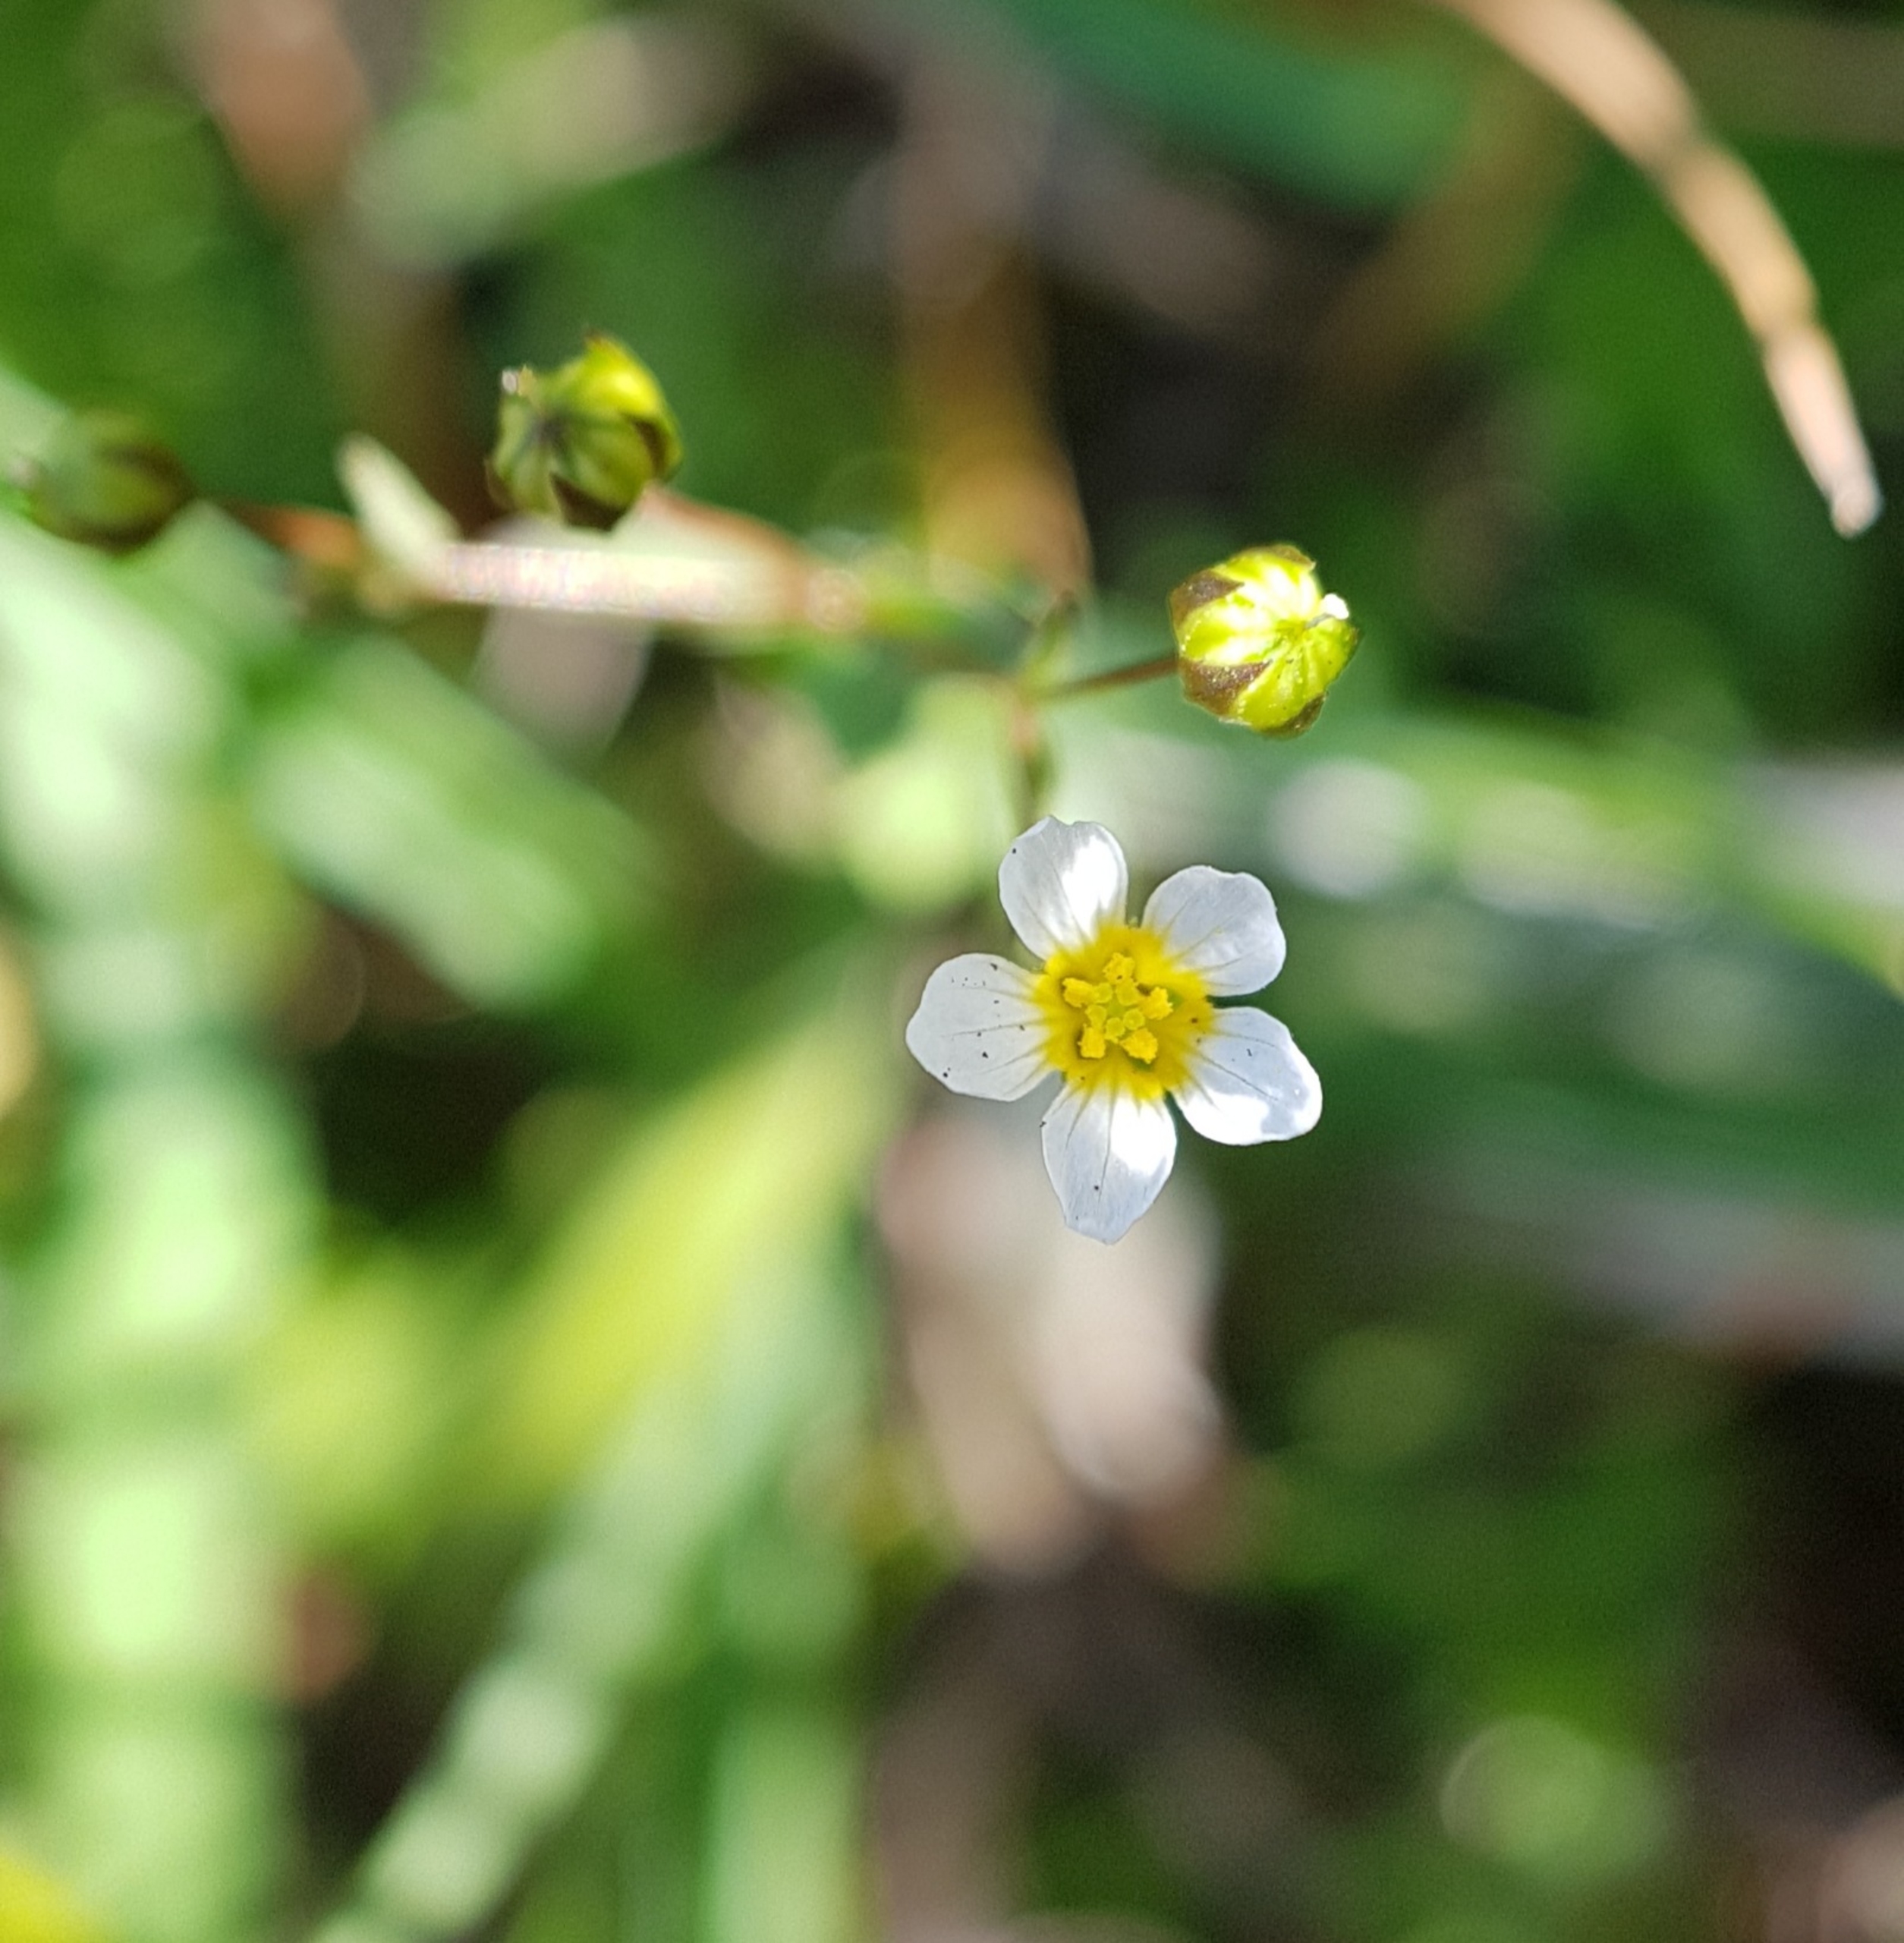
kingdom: Plantae
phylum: Tracheophyta
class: Magnoliopsida
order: Malpighiales
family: Linaceae
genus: Linum
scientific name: Linum catharticum
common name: Vild hør
